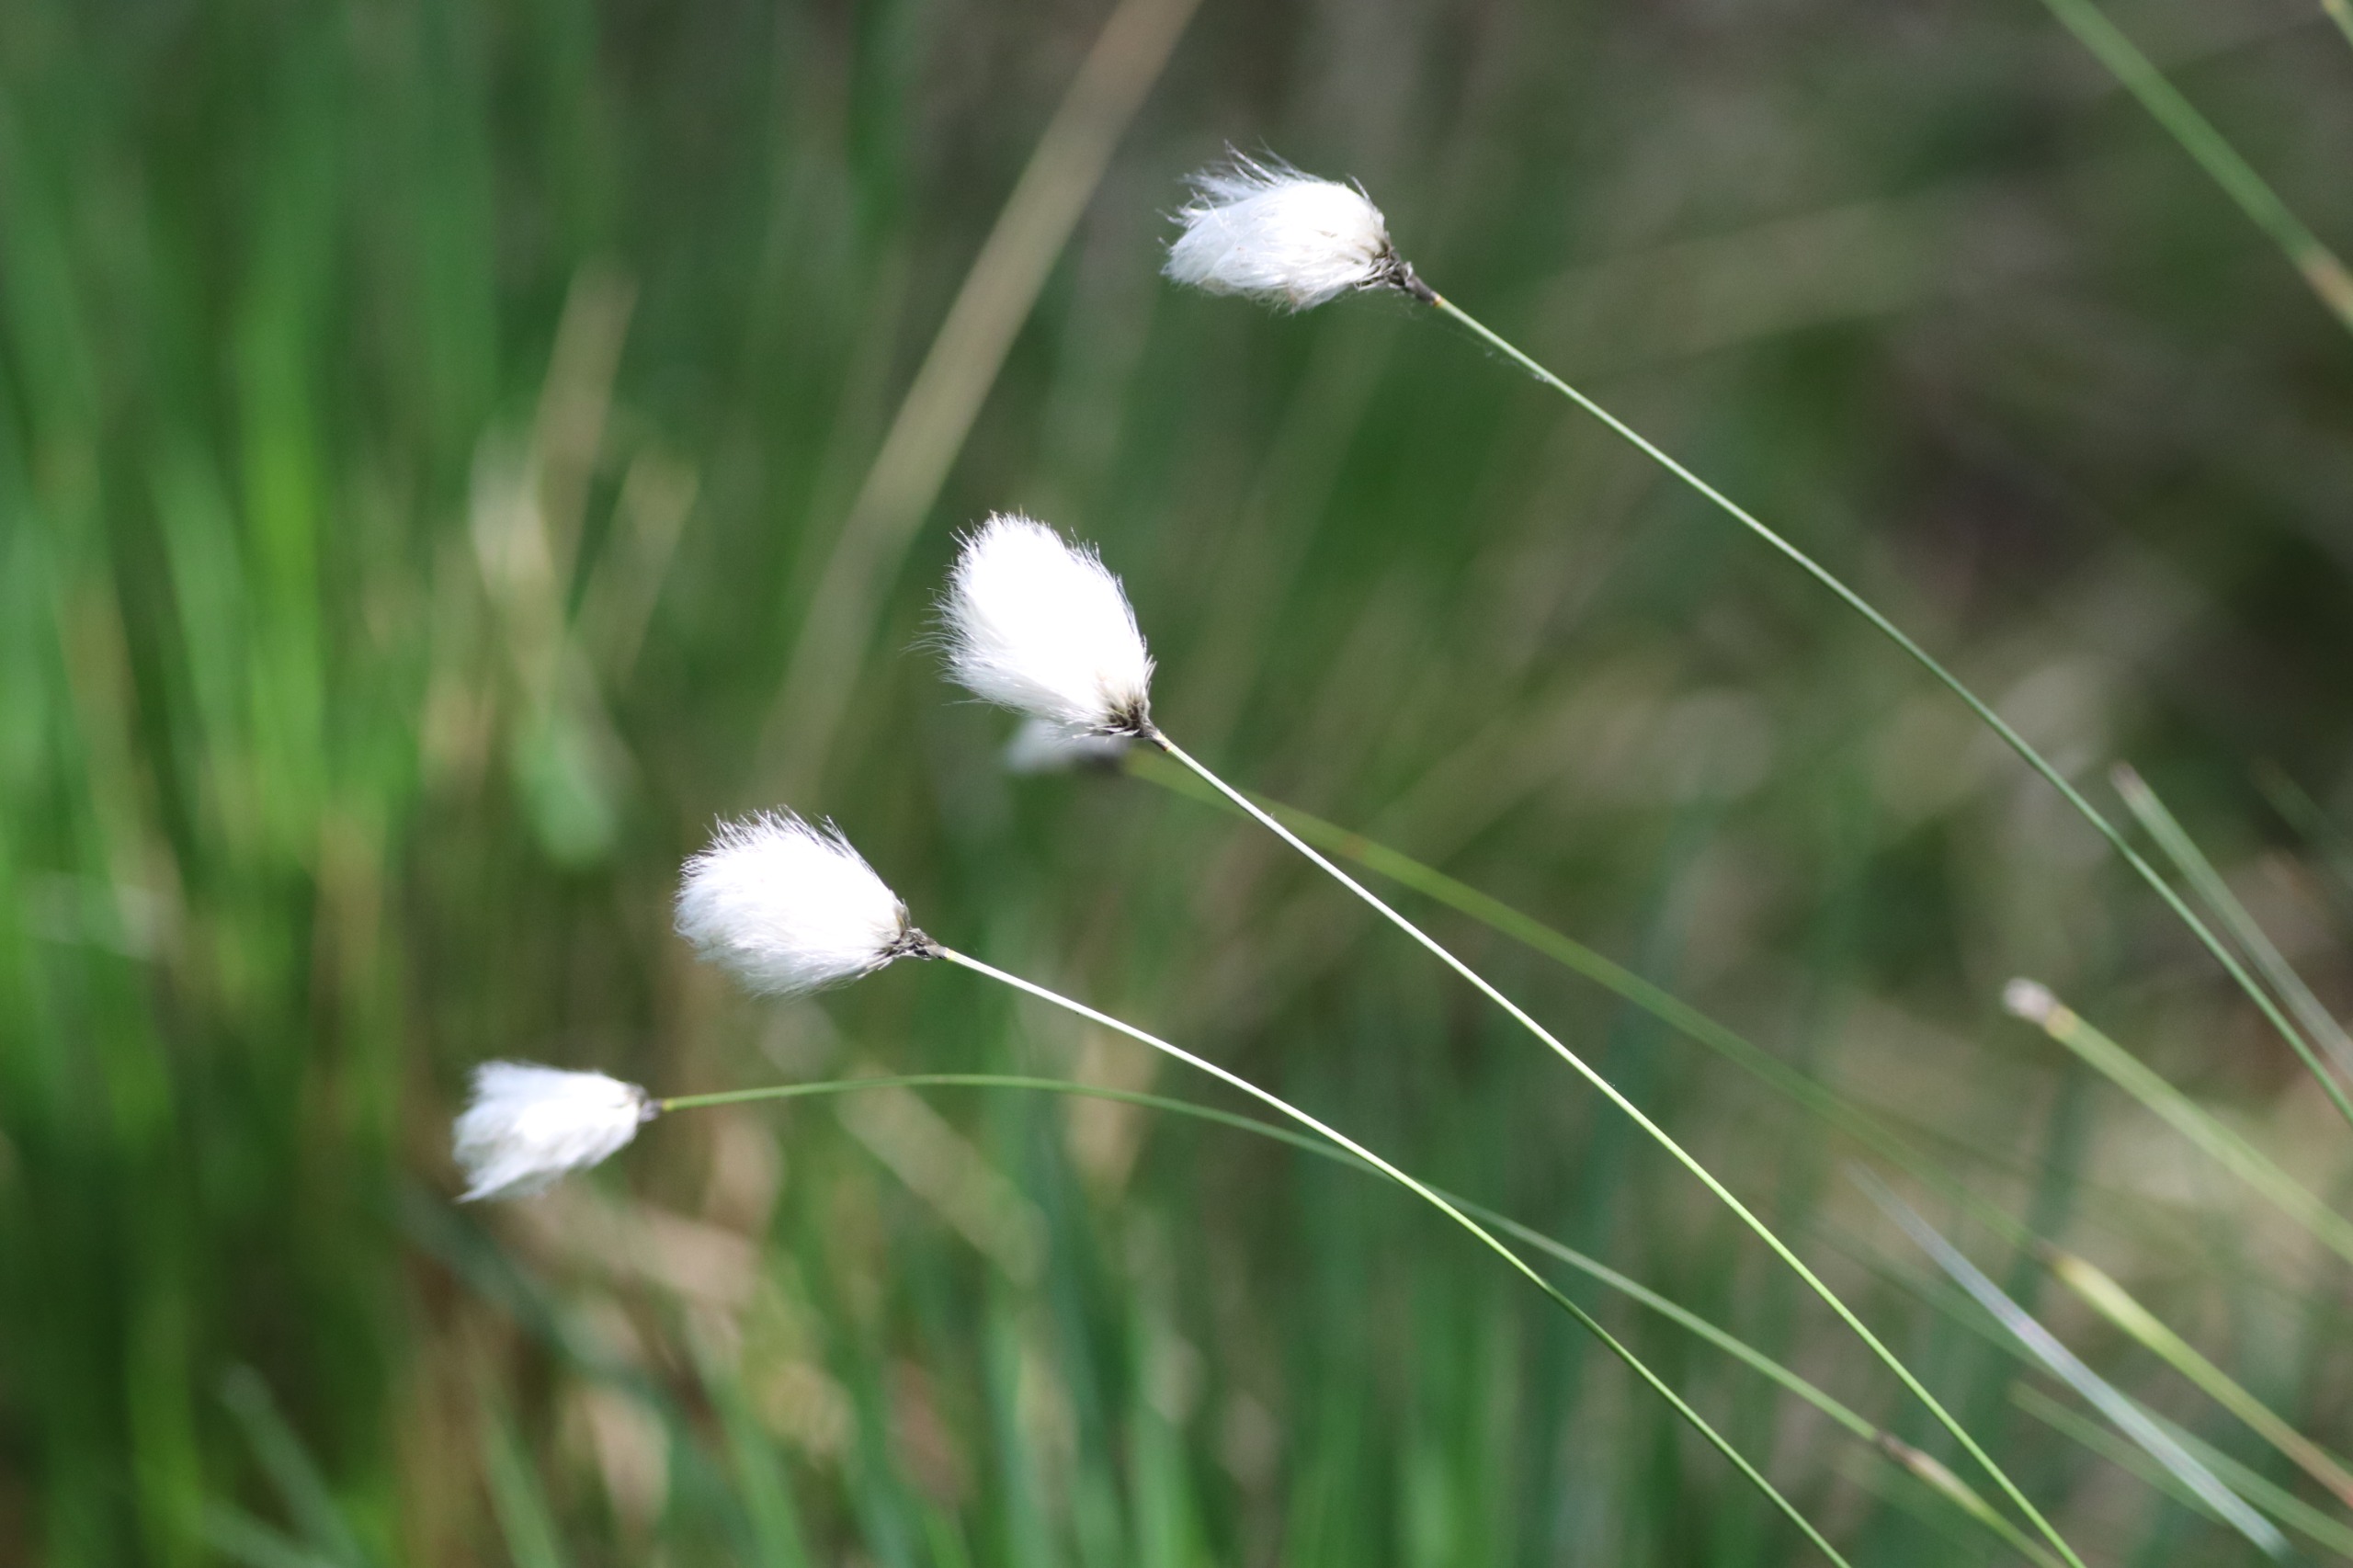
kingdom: Plantae
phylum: Tracheophyta
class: Liliopsida
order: Poales
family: Cyperaceae
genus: Eriophorum
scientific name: Eriophorum vaginatum
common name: Tue-kæruld
